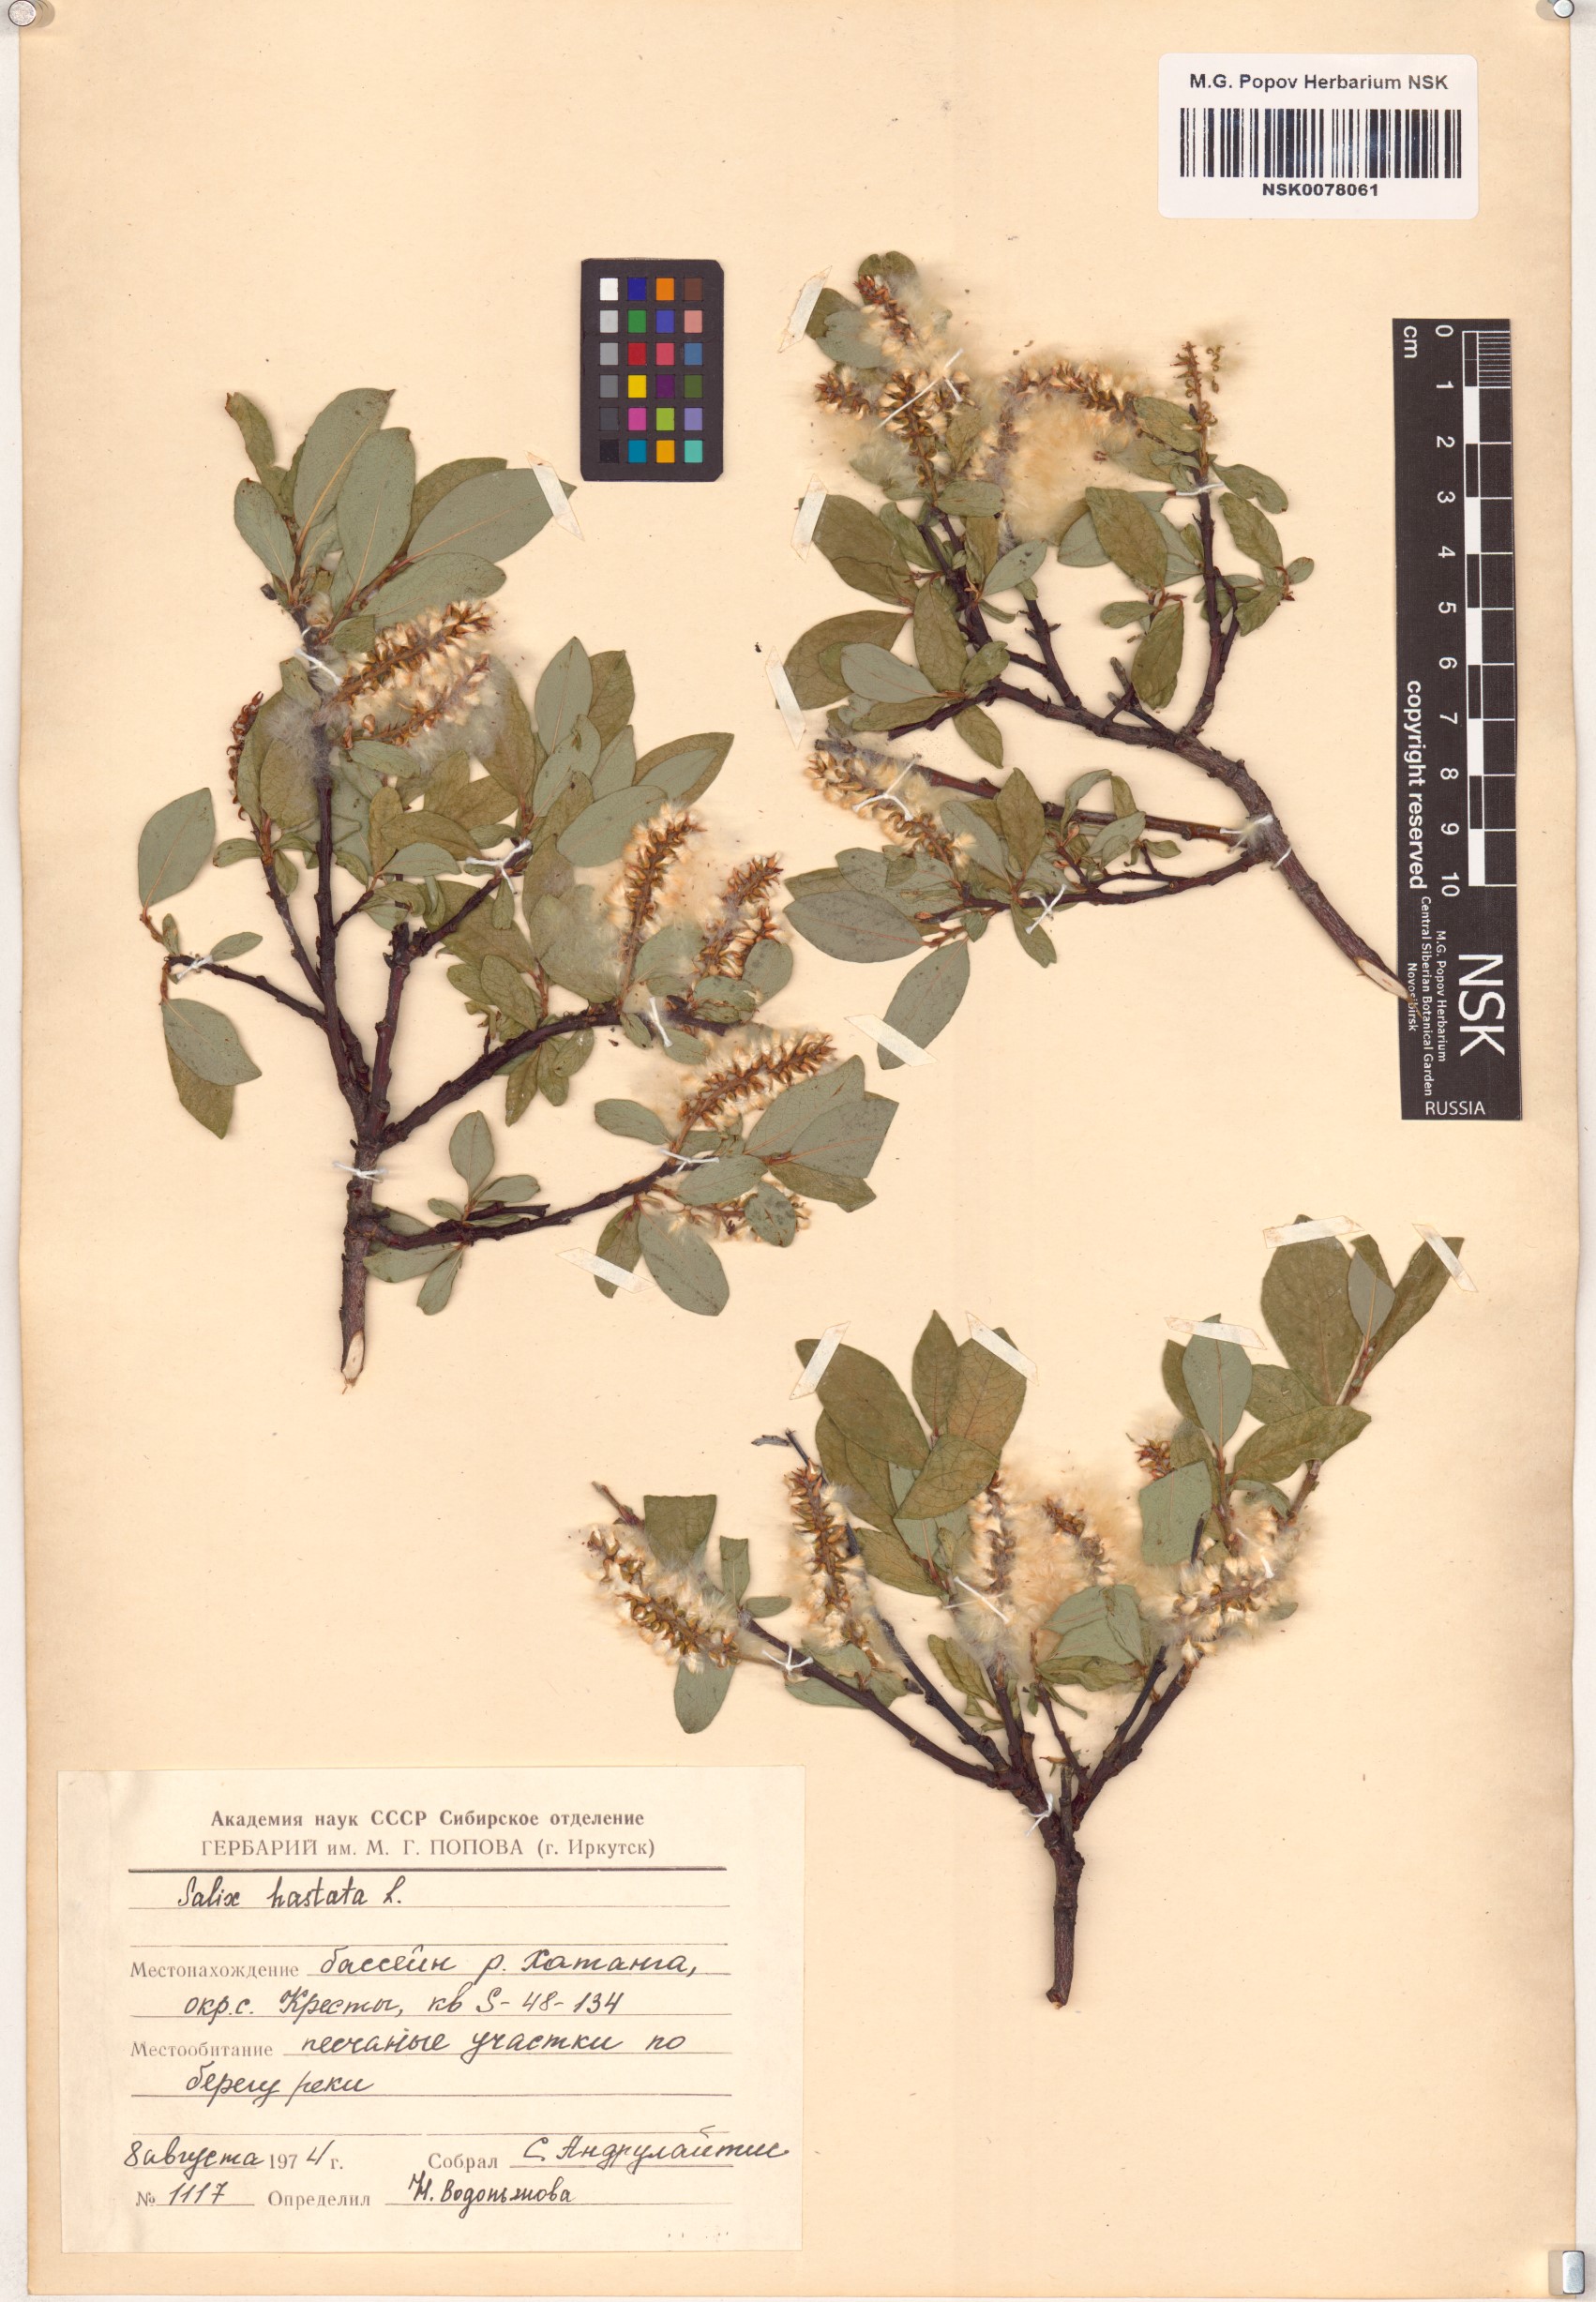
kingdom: Plantae
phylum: Tracheophyta
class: Magnoliopsida
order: Malpighiales
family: Salicaceae
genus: Salix
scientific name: Salix hastata
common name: Halberd willow
